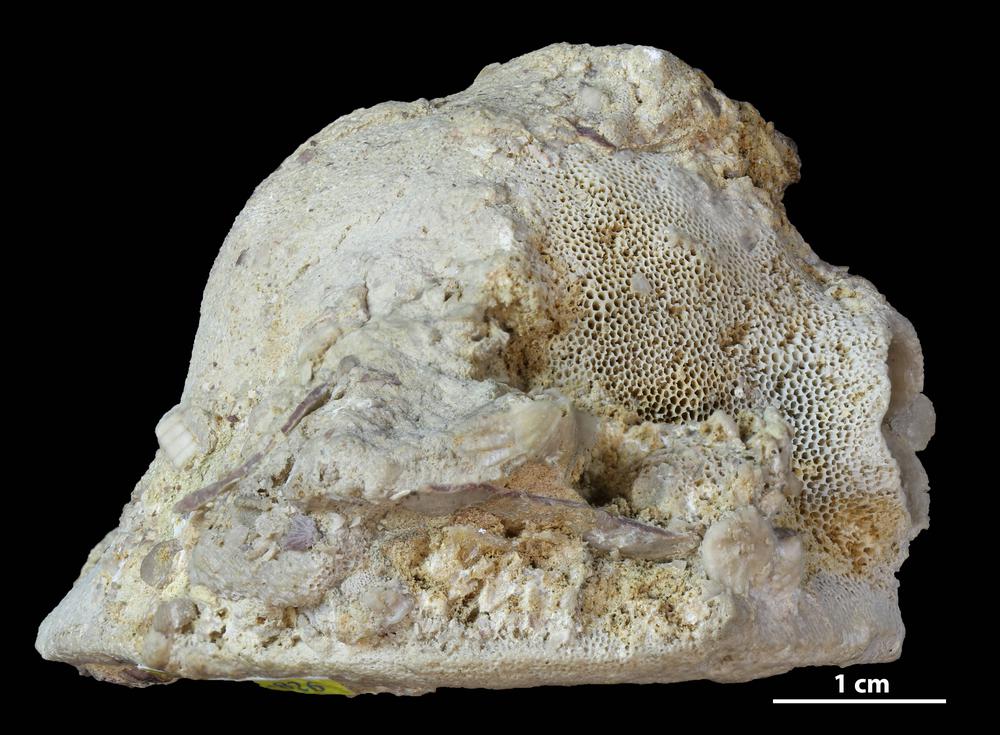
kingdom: Animalia
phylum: Bryozoa
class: Stenolaemata
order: Trepostomatida
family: Diplotrypidae
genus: Diplotrypa
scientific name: Diplotrypa
